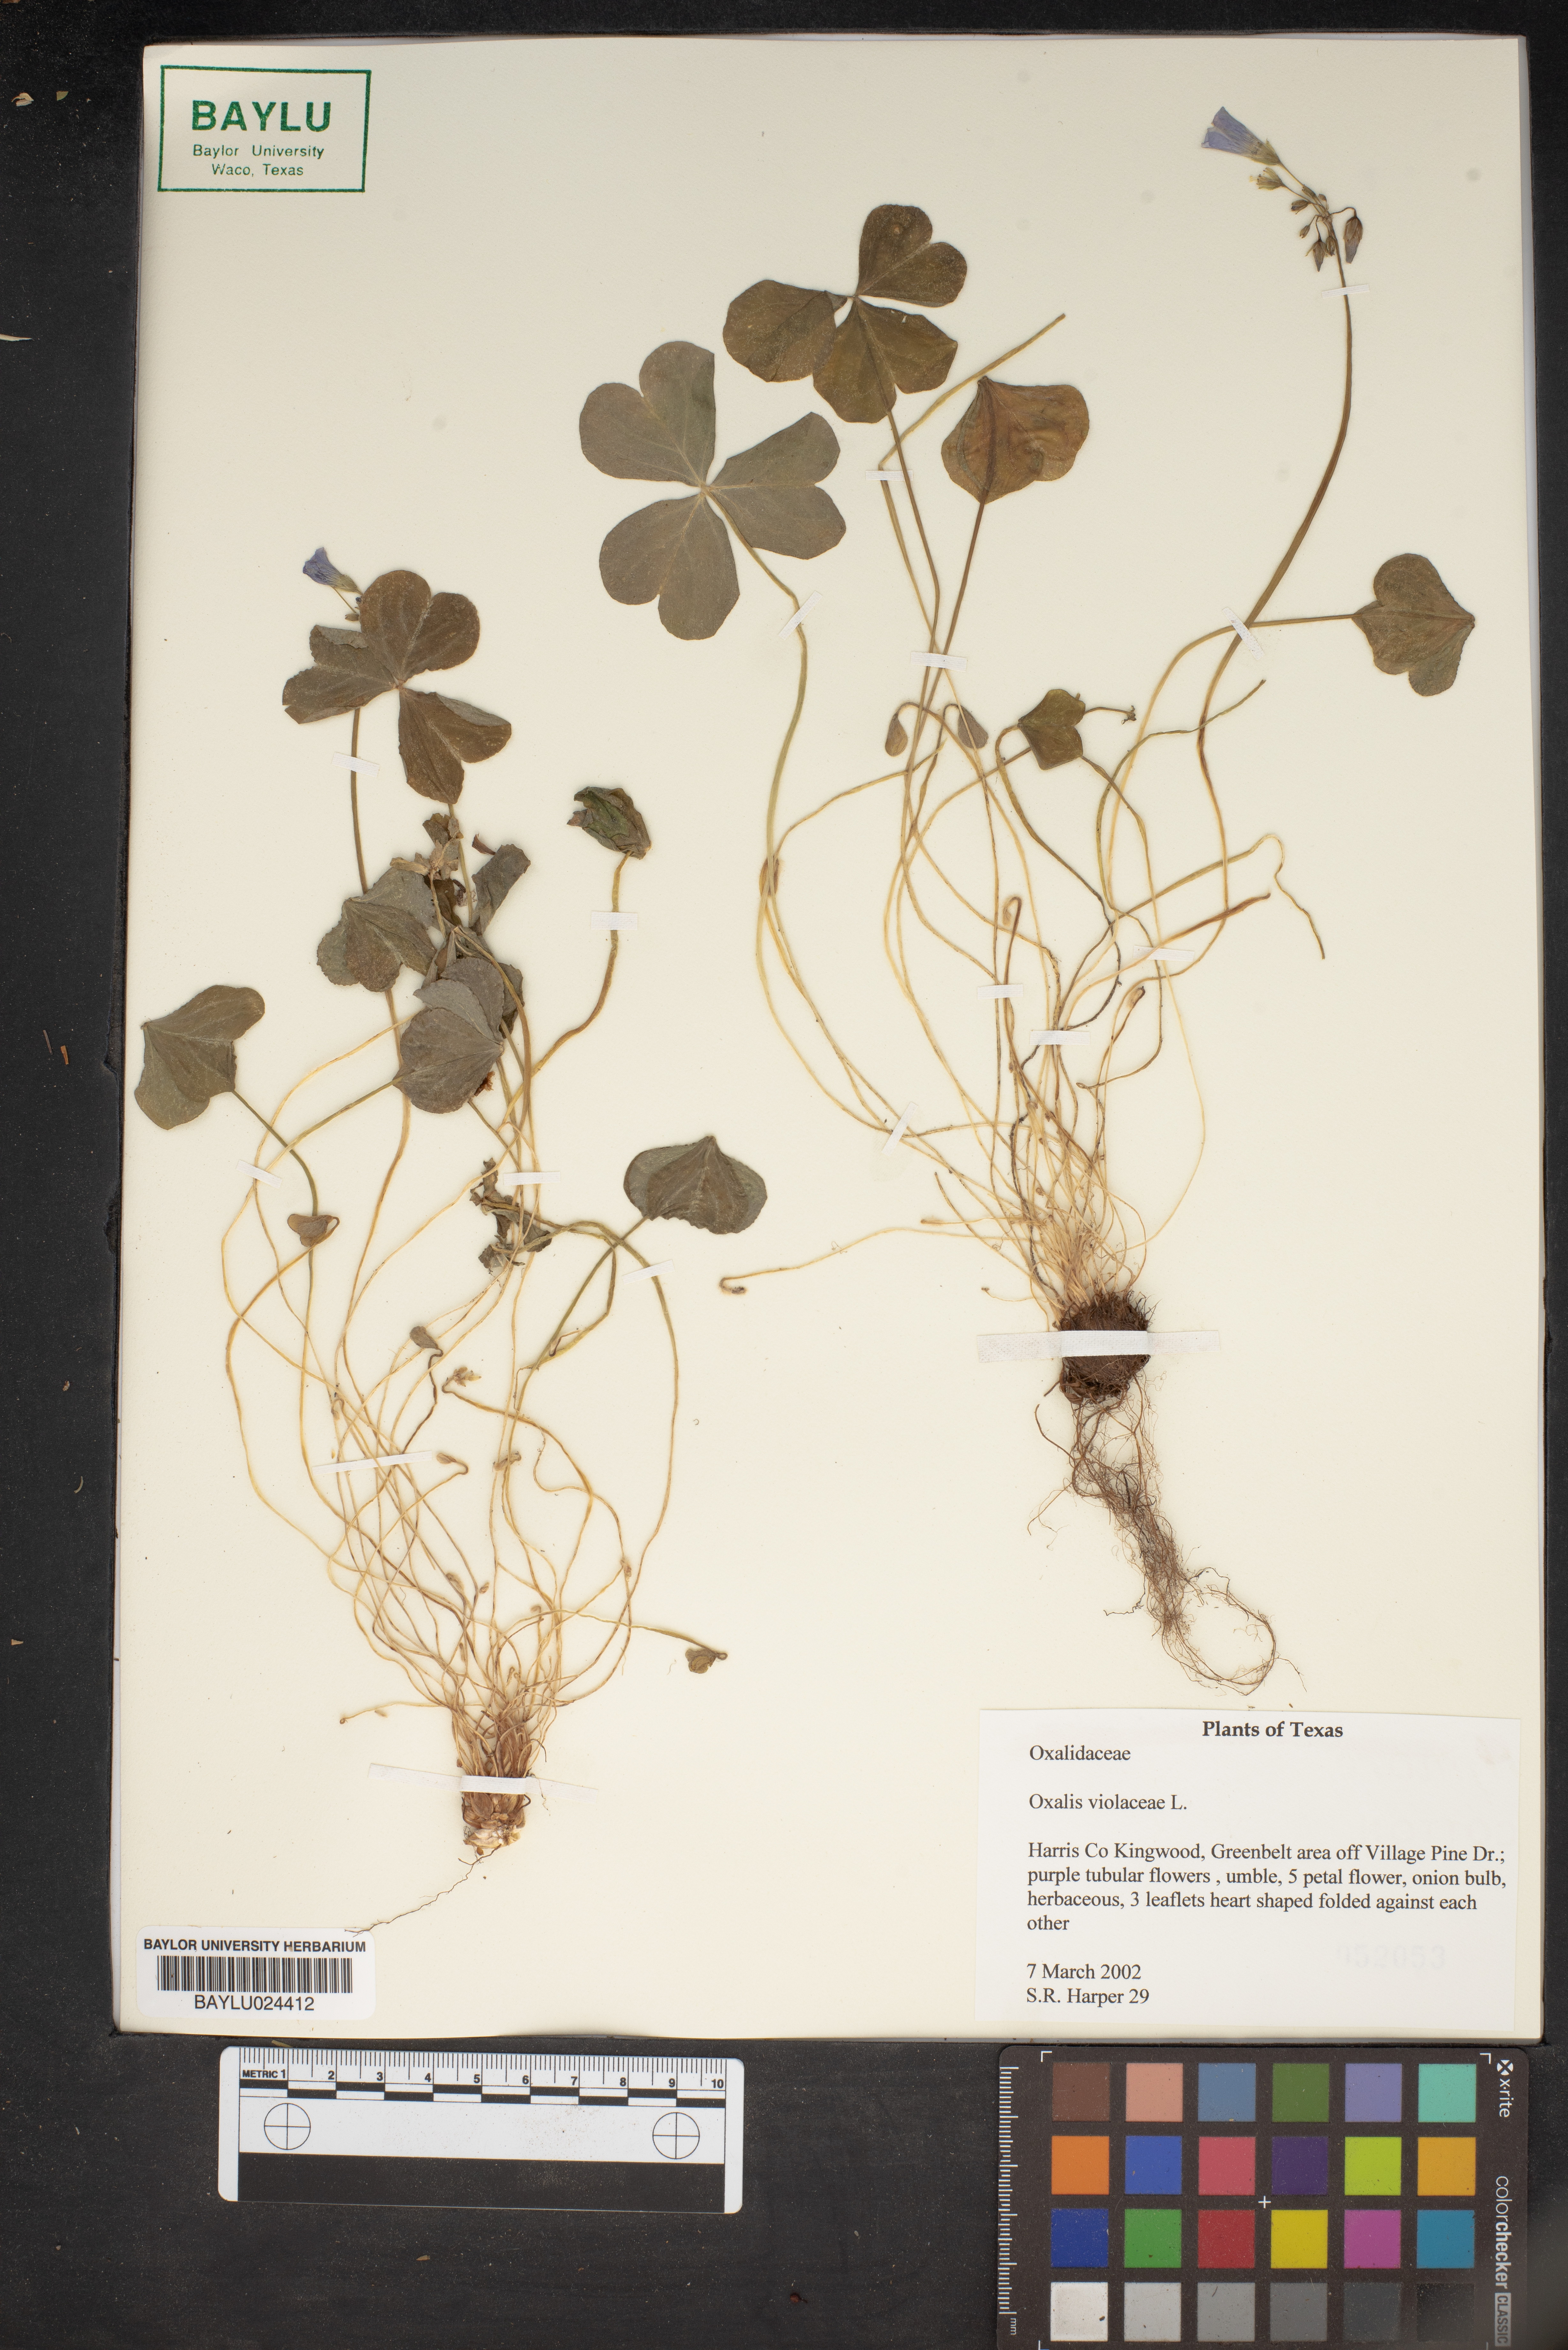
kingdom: Plantae
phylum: Tracheophyta
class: Magnoliopsida
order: Oxalidales
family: Oxalidaceae
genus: Oxalis
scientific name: Oxalis violacea
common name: Violet wood-sorrel
